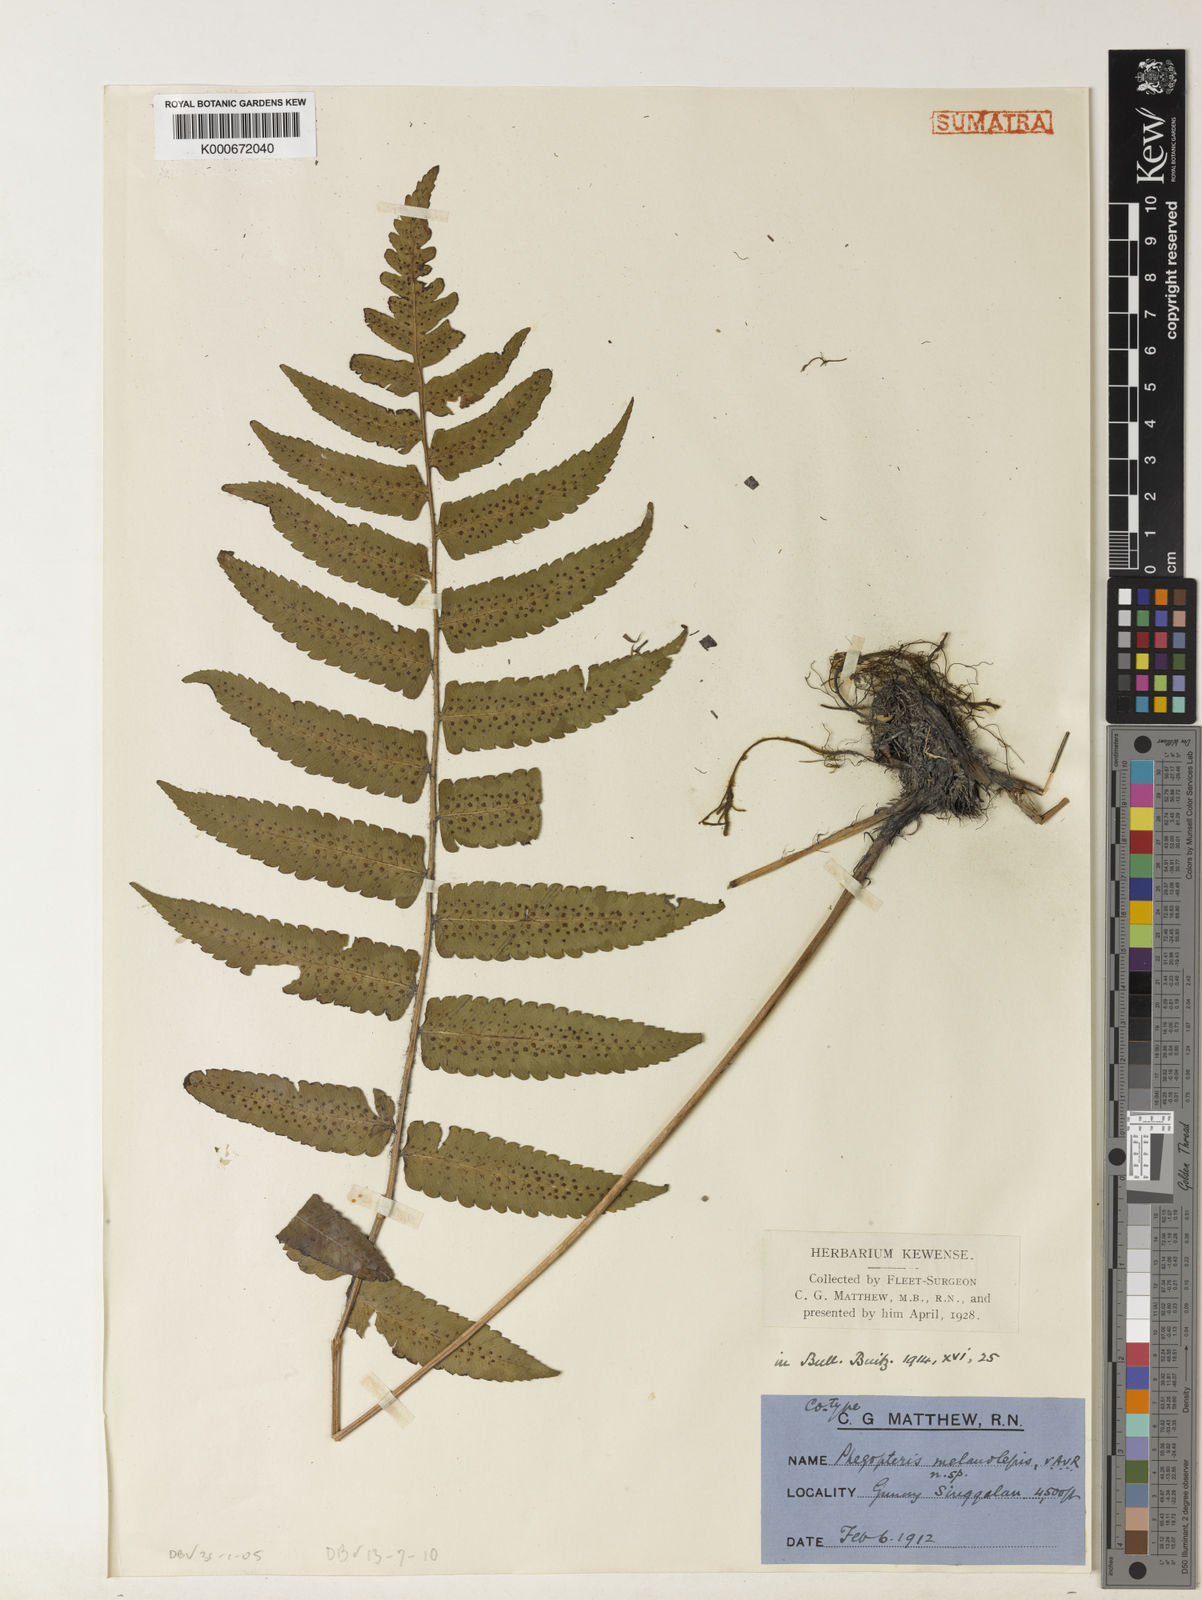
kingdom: Plantae
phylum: Tracheophyta
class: Polypodiopsida
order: Polypodiales
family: Dryopteridaceae
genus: Dryopteris
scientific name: Dryopteris purpurascens
